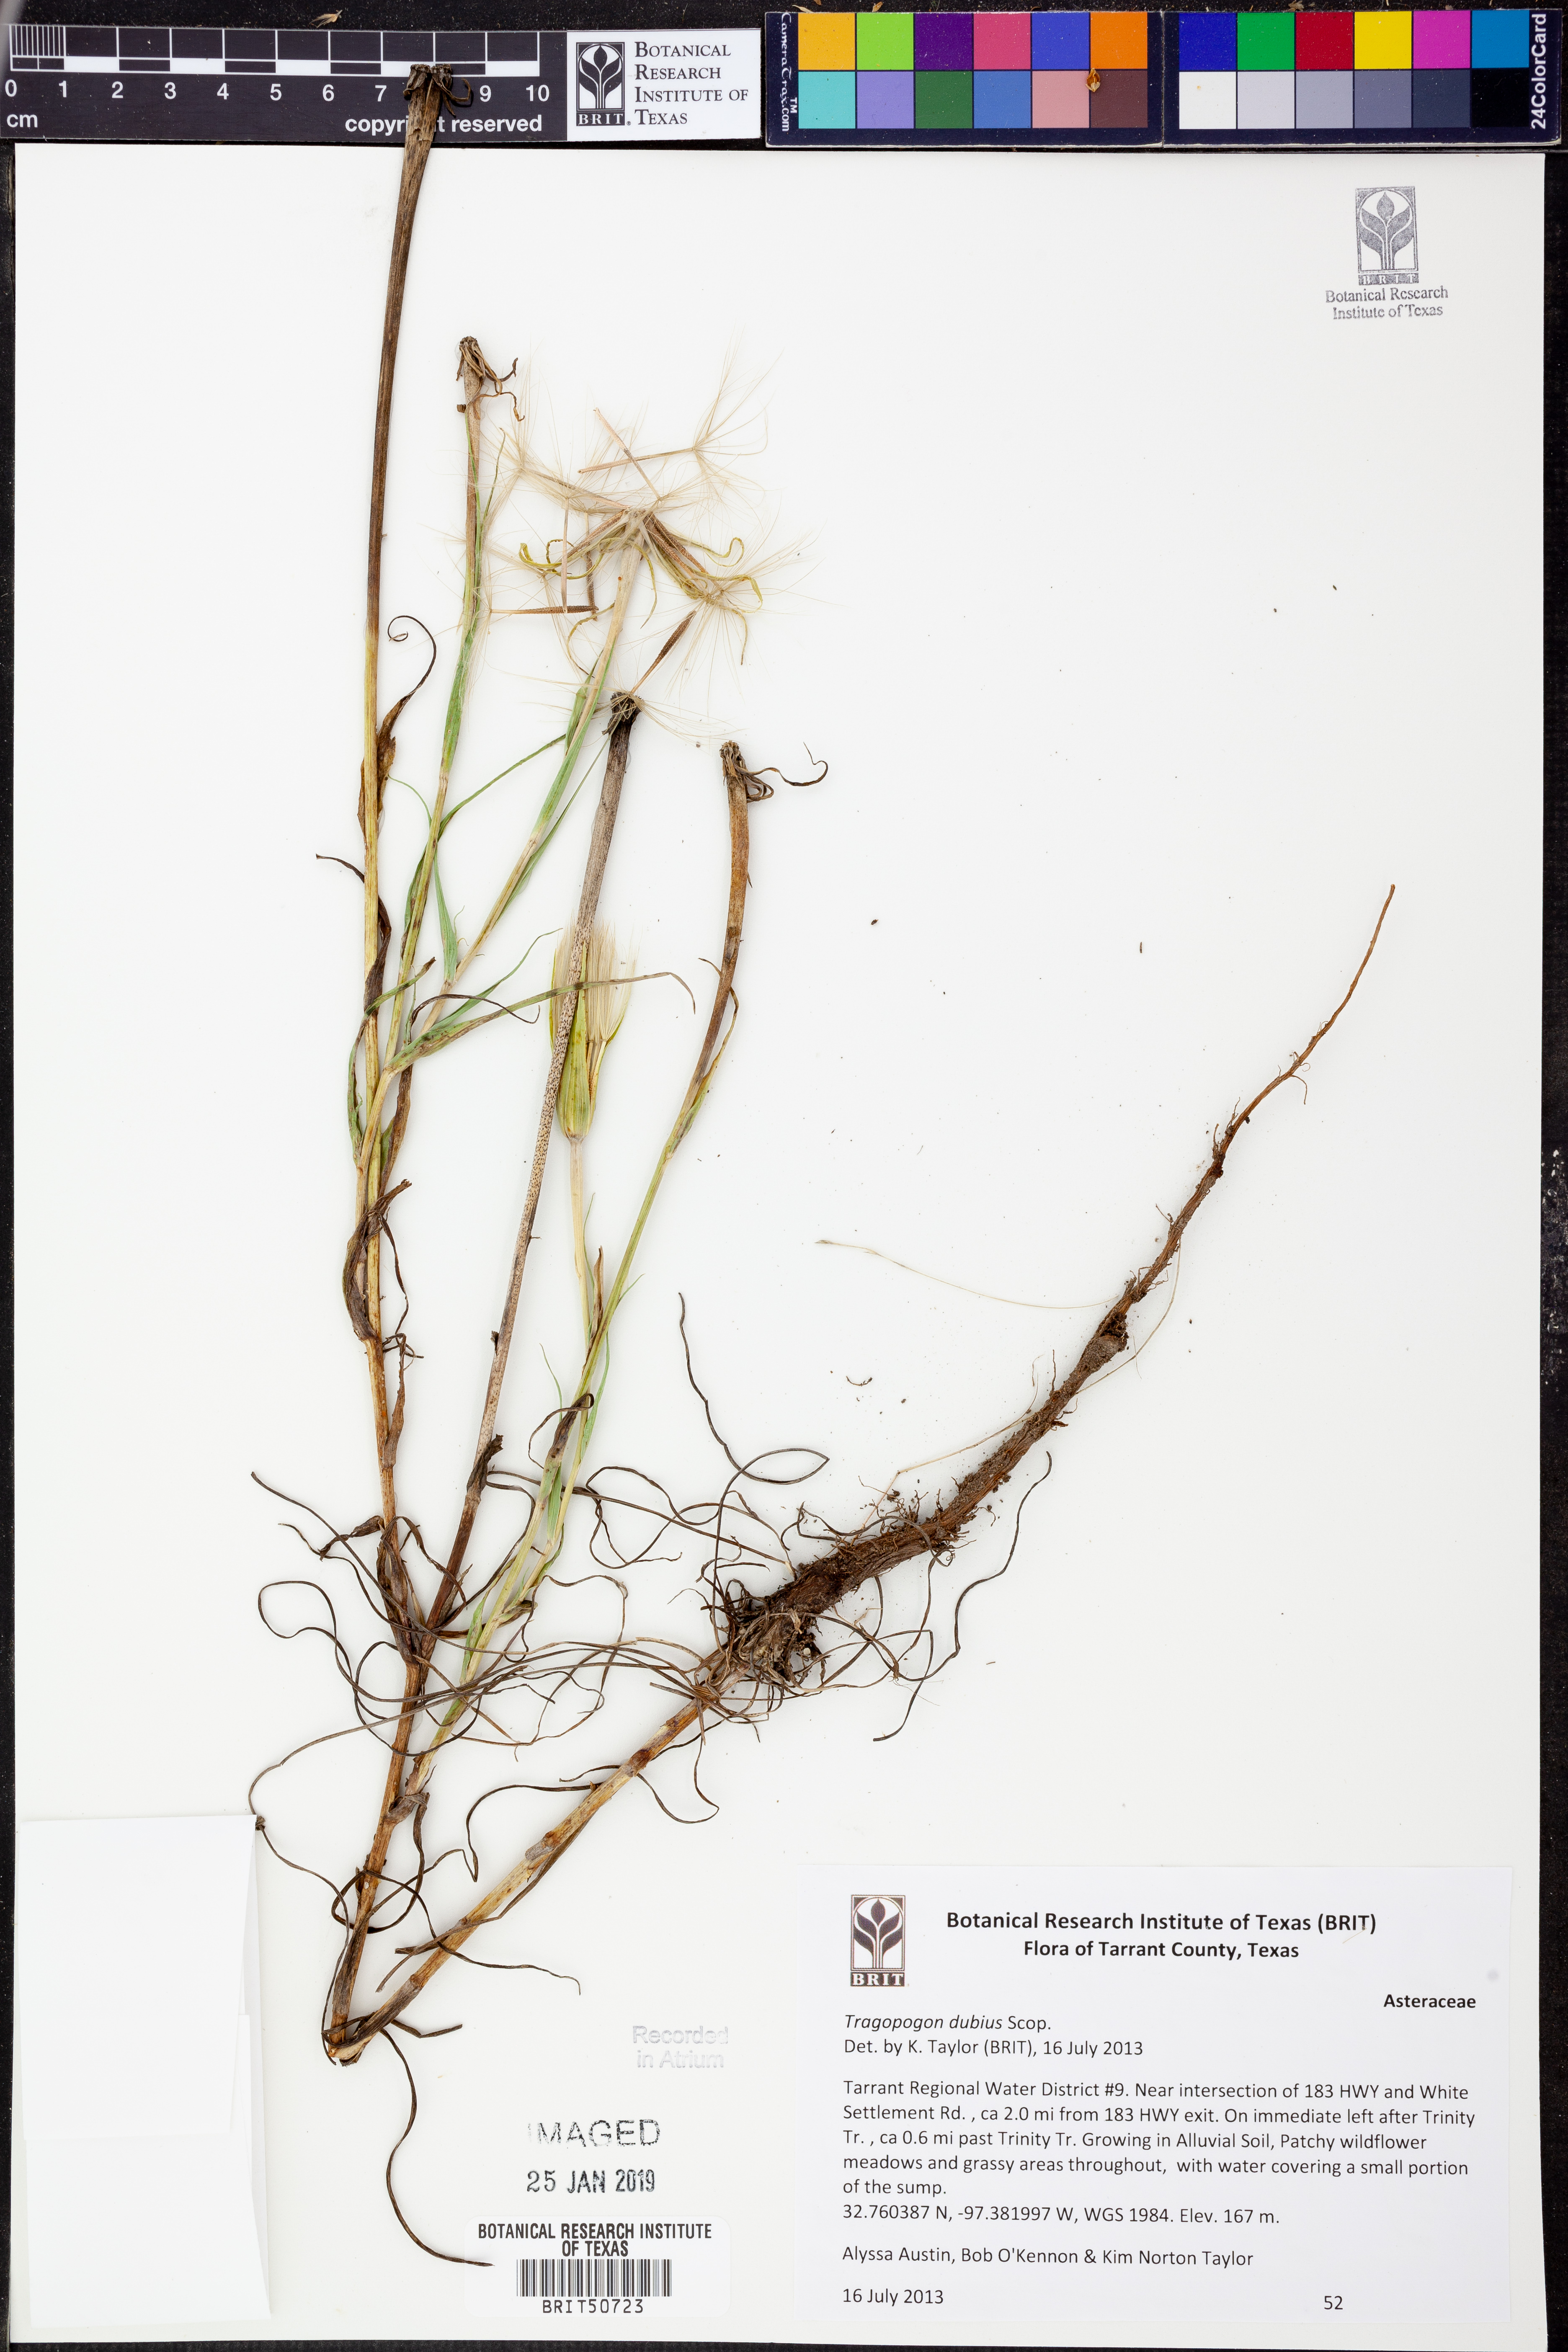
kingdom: Plantae
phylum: Tracheophyta
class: Magnoliopsida
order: Asterales
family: Asteraceae
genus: Tragopogon
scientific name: Tragopogon dubius
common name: Yellow salsify
